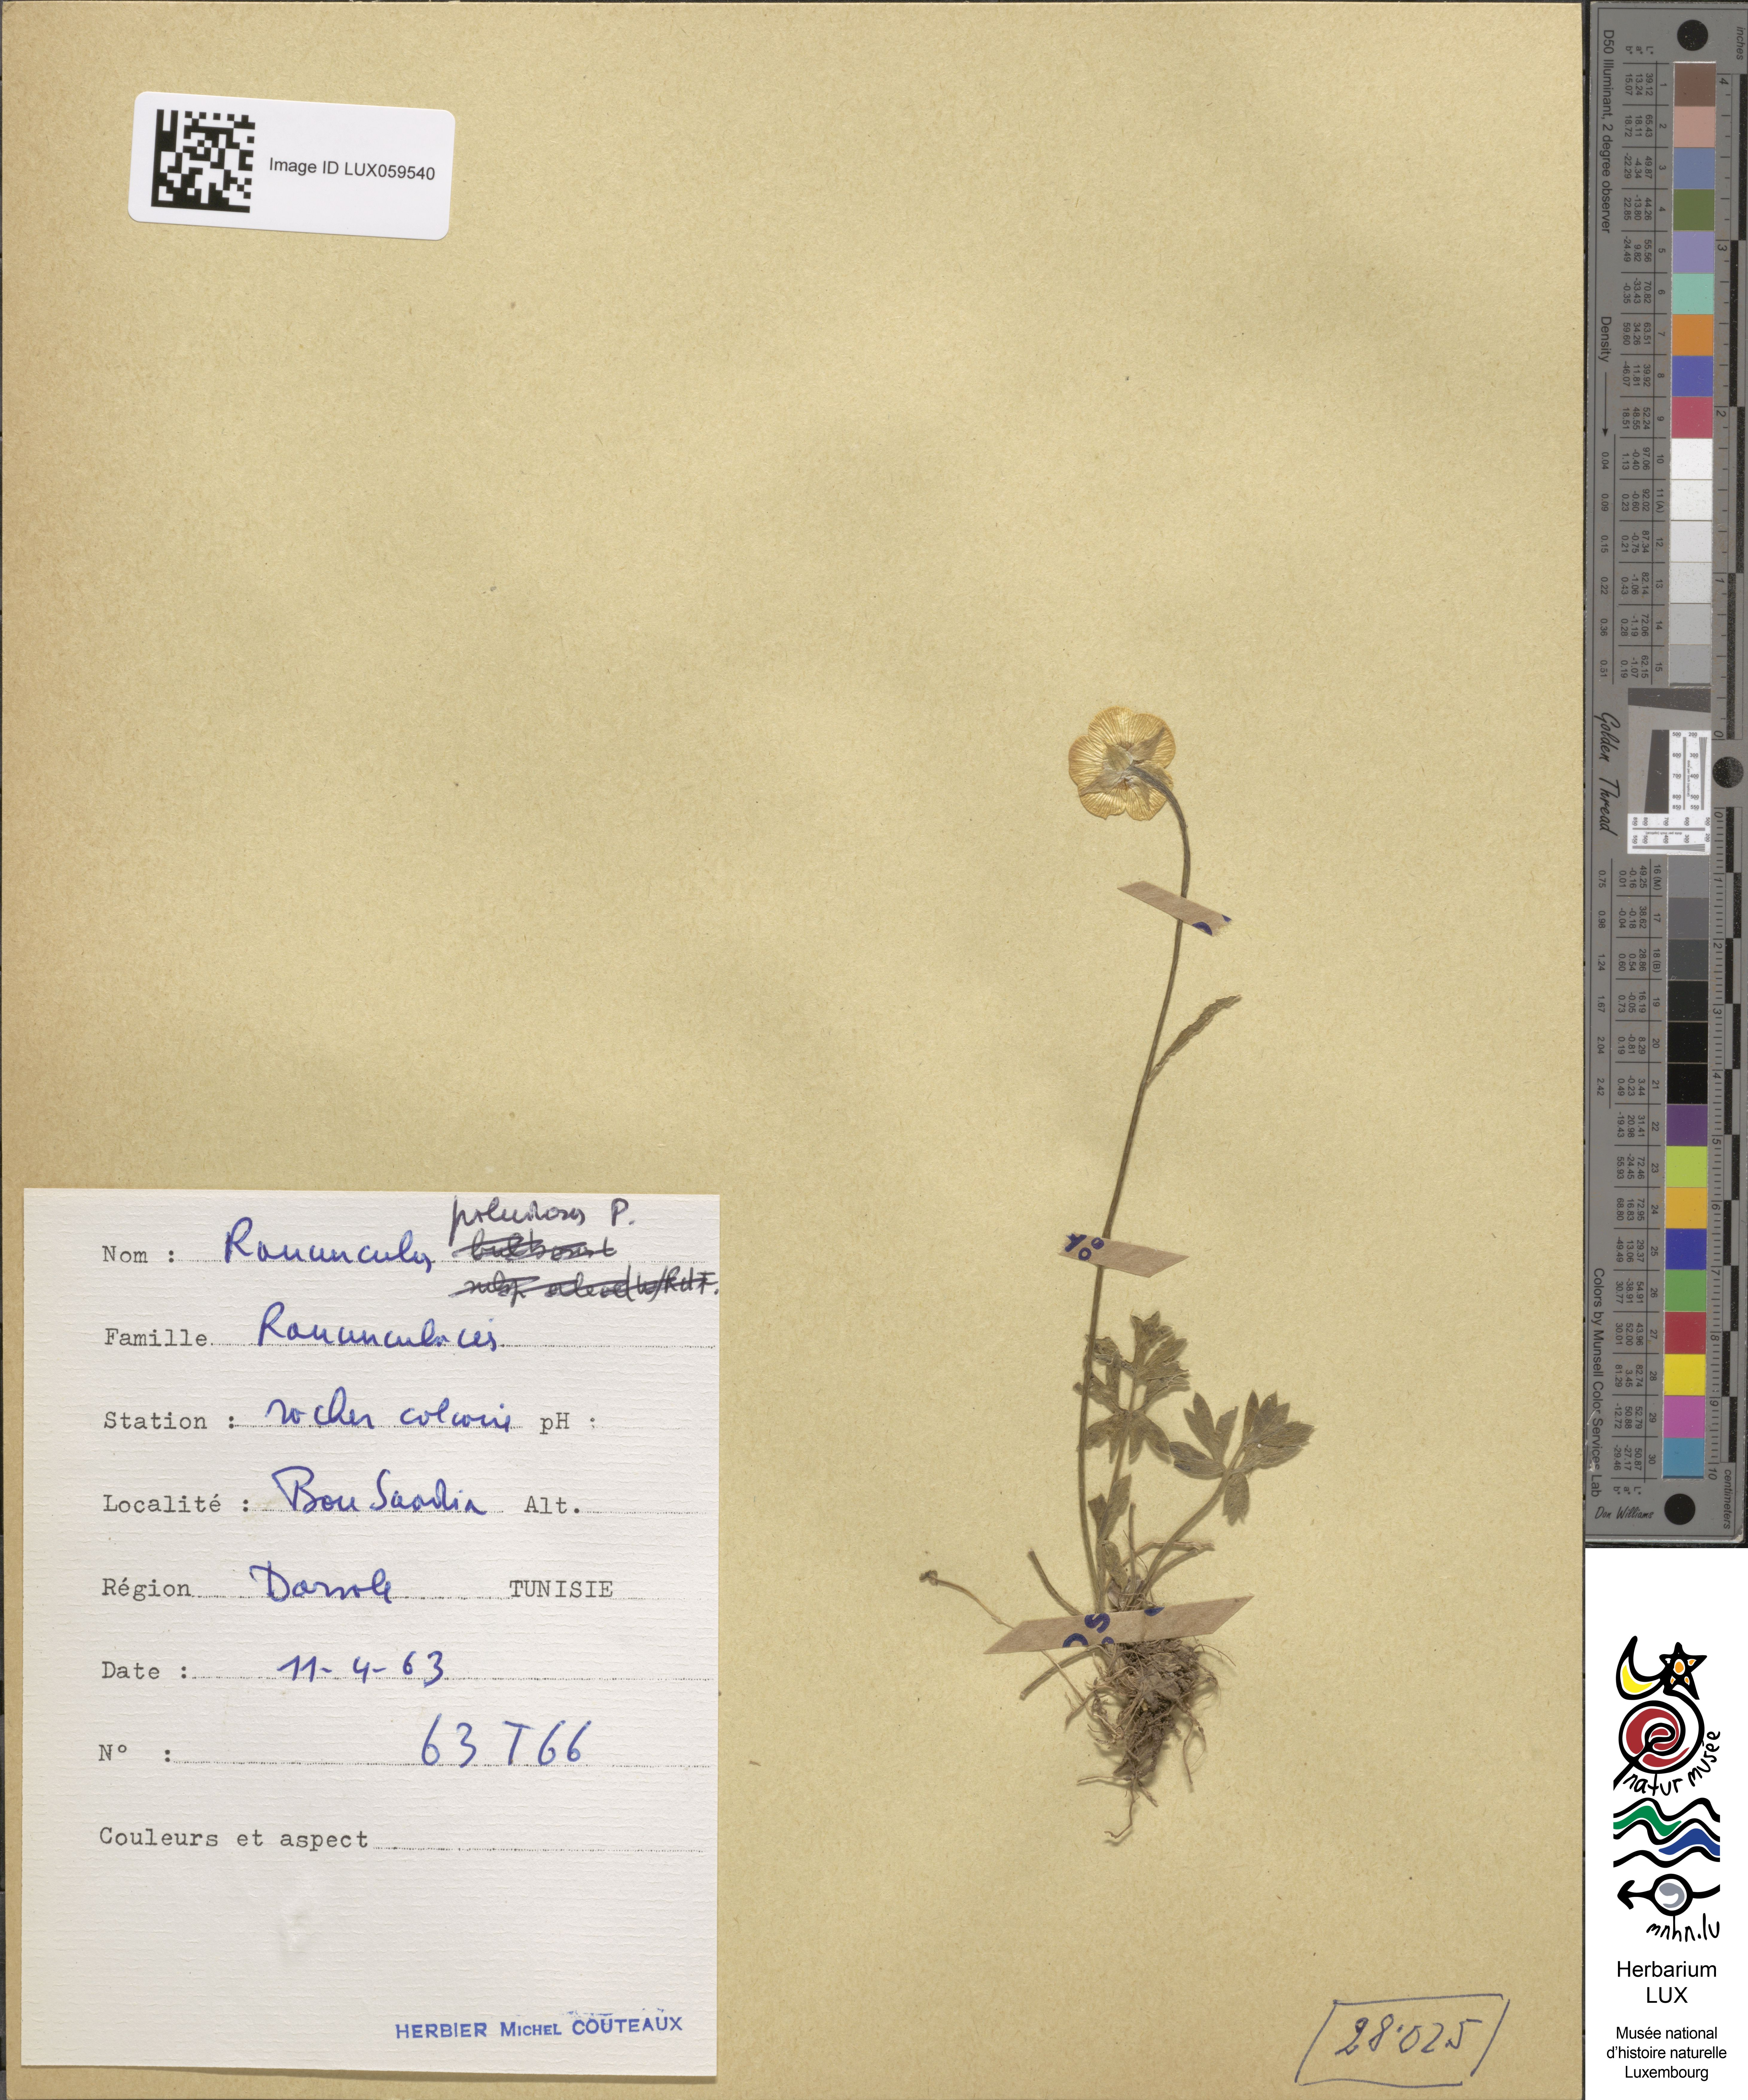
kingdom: Plantae
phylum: Tracheophyta
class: Magnoliopsida
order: Ranunculales
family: Ranunculaceae
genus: Ranunculus
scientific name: Ranunculus paludosus
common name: Jersey buttercup
